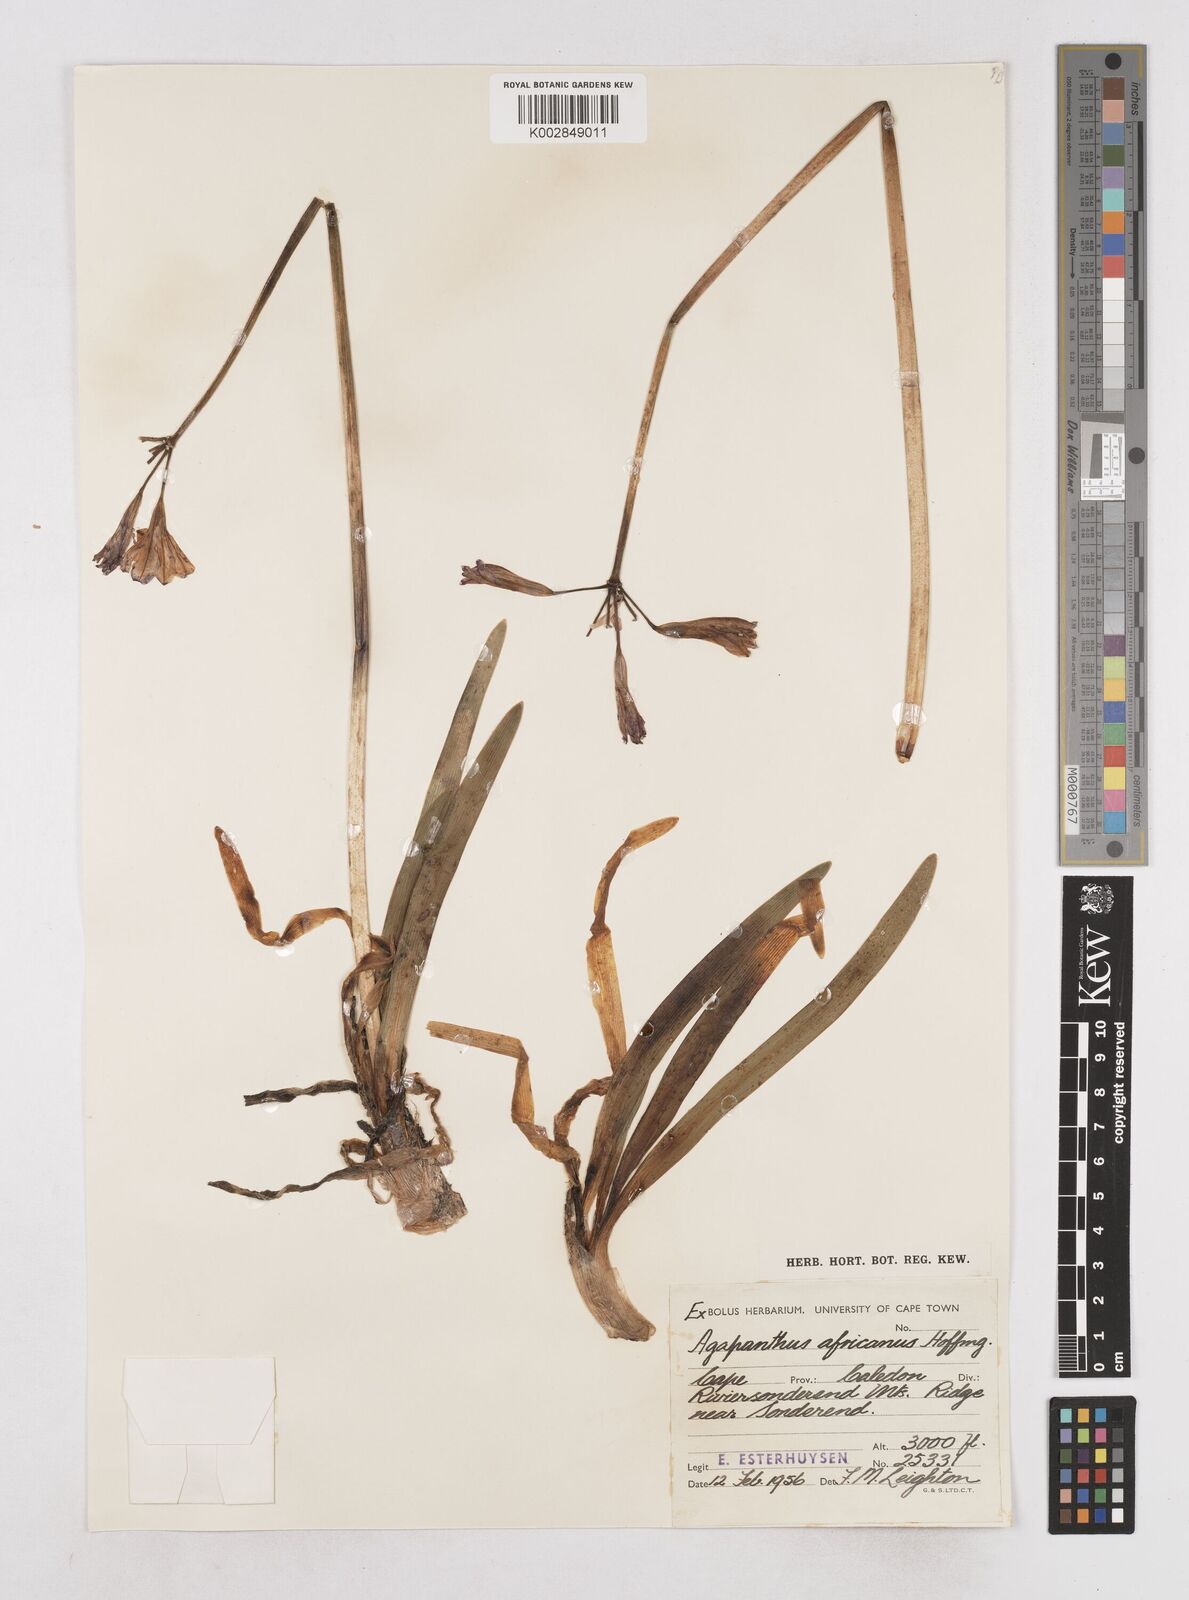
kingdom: Plantae
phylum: Tracheophyta
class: Liliopsida
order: Asparagales
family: Amaryllidaceae
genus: Agapanthus
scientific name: Agapanthus africanus
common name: Lily-of-the-nile
